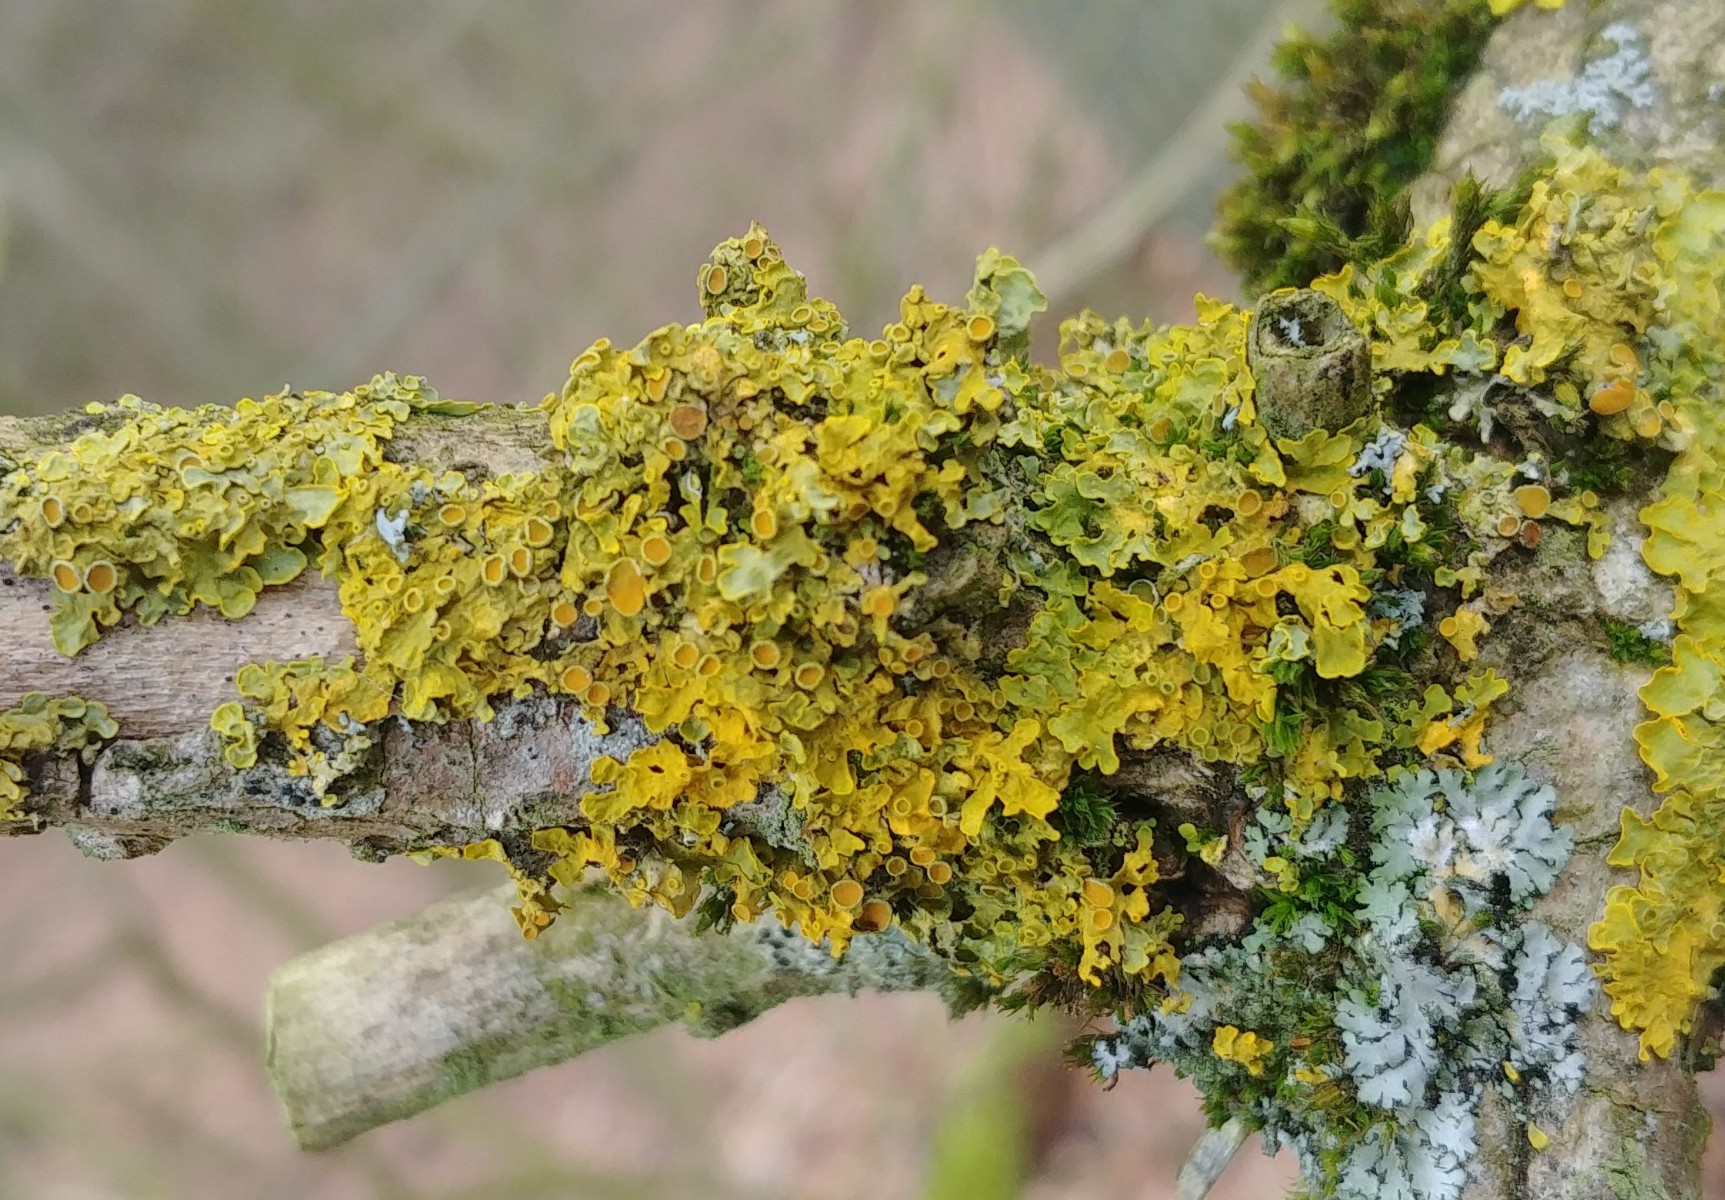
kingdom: Fungi
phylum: Ascomycota
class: Lecanoromycetes
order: Teloschistales
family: Teloschistaceae
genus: Xanthoria
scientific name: Xanthoria parietina
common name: almindelig væggelav
